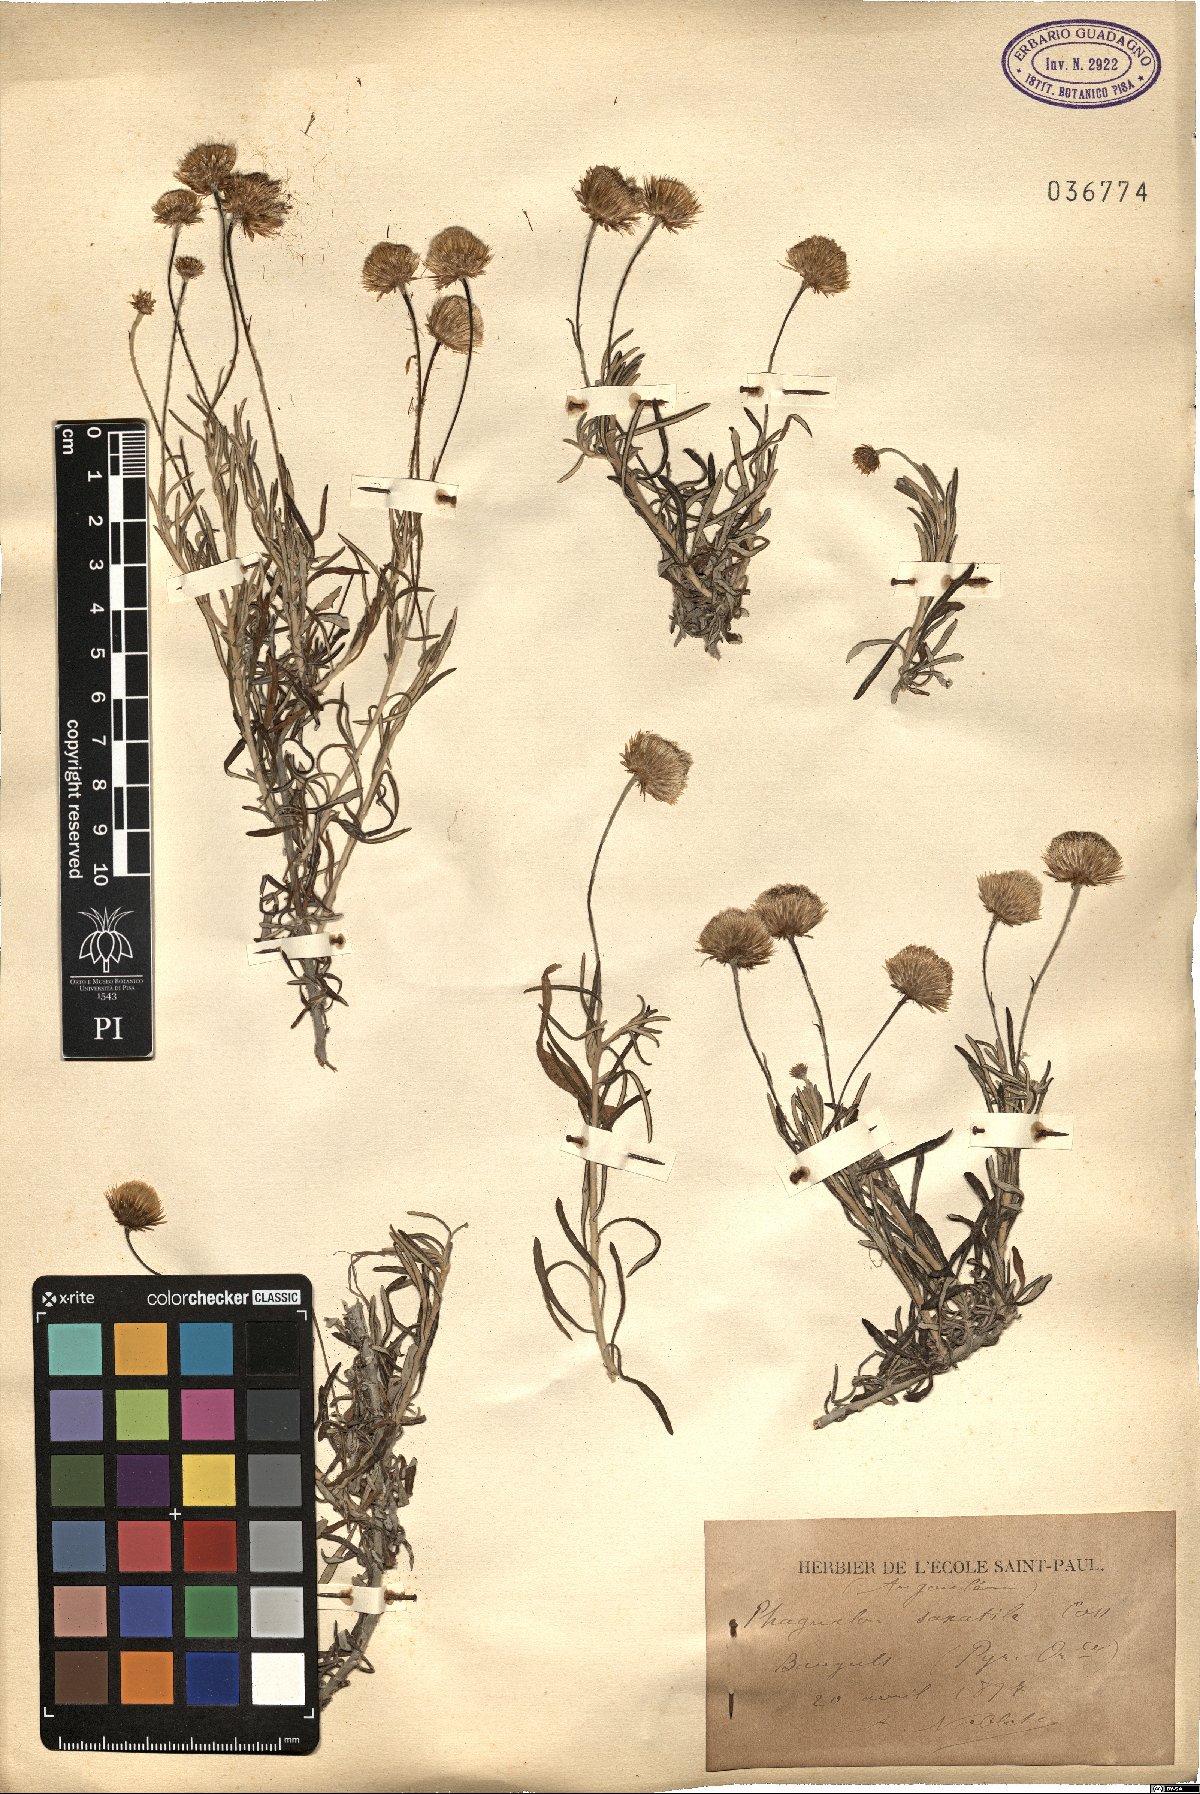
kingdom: Plantae
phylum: Tracheophyta
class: Magnoliopsida
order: Asterales
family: Asteraceae
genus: Phagnalon
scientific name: Phagnalon saxatile
